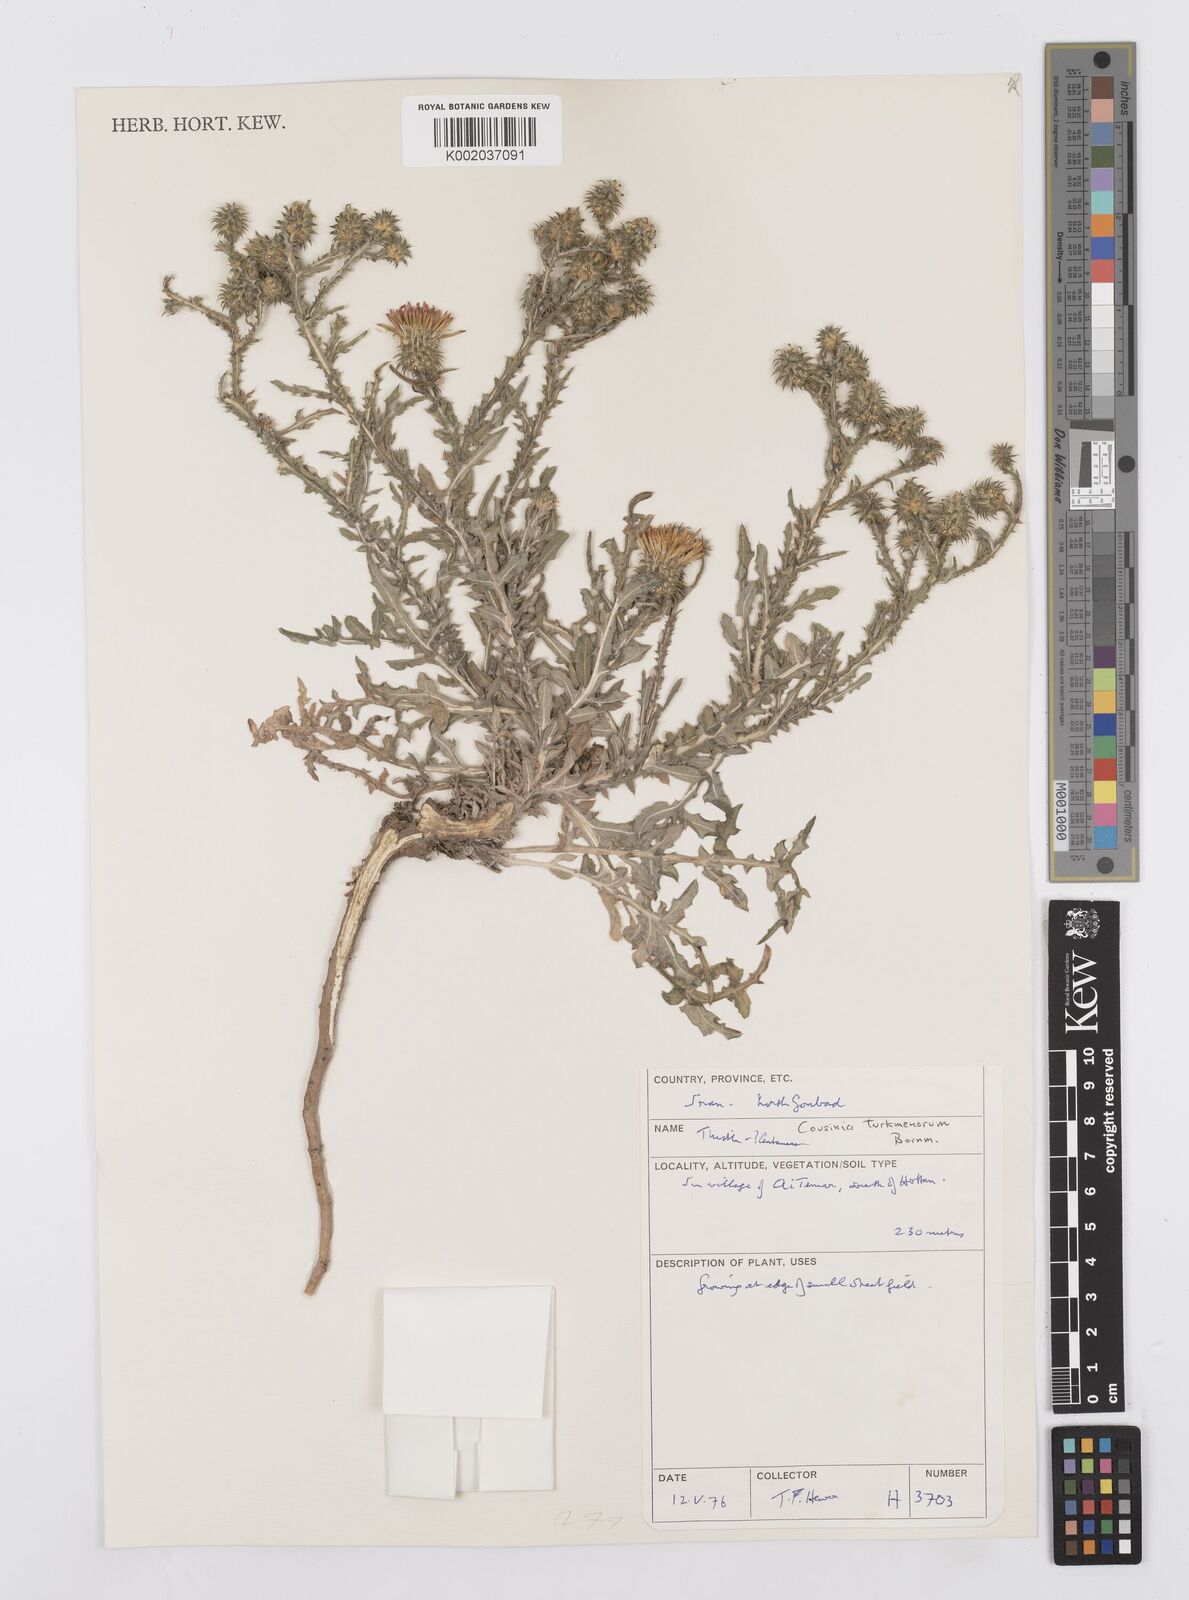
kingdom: Plantae
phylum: Tracheophyta
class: Magnoliopsida
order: Asterales
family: Asteraceae
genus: Cousinia
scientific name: Cousinia turkmenorum
